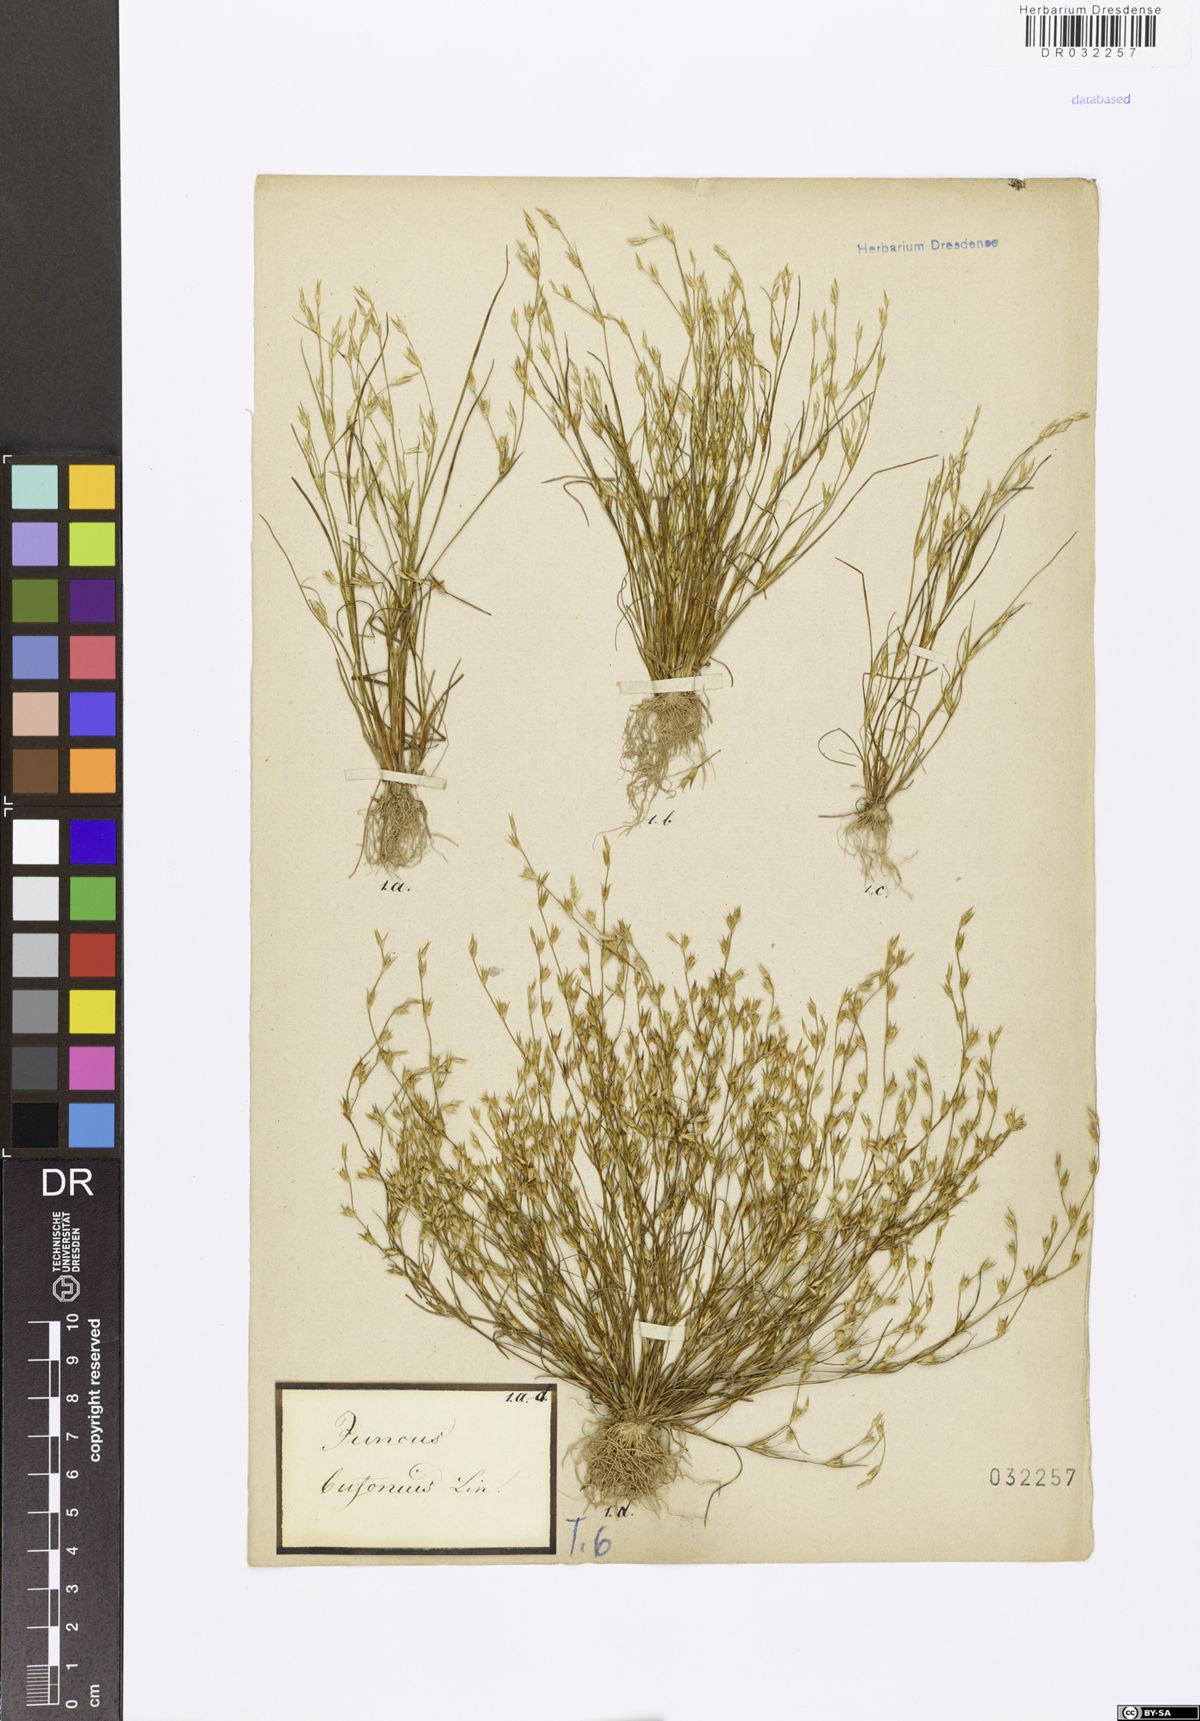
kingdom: Plantae
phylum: Tracheophyta
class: Liliopsida
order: Poales
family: Juncaceae
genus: Juncus
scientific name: Juncus bufonius
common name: Toad rush
